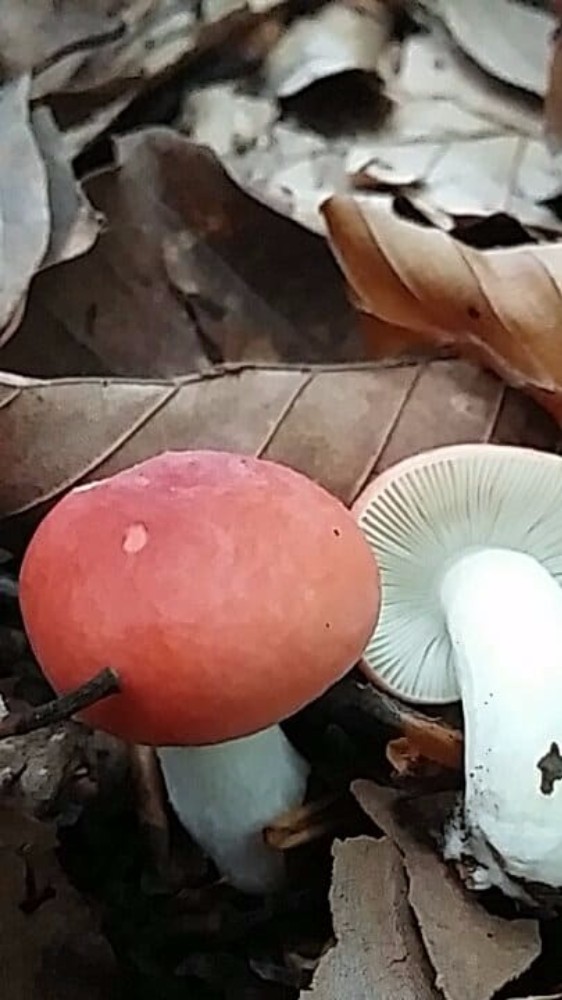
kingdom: Fungi
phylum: Basidiomycota
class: Agaricomycetes
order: Russulales
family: Russulaceae
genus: Russula
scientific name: Russula nobilis
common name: lille gift-skørhat
